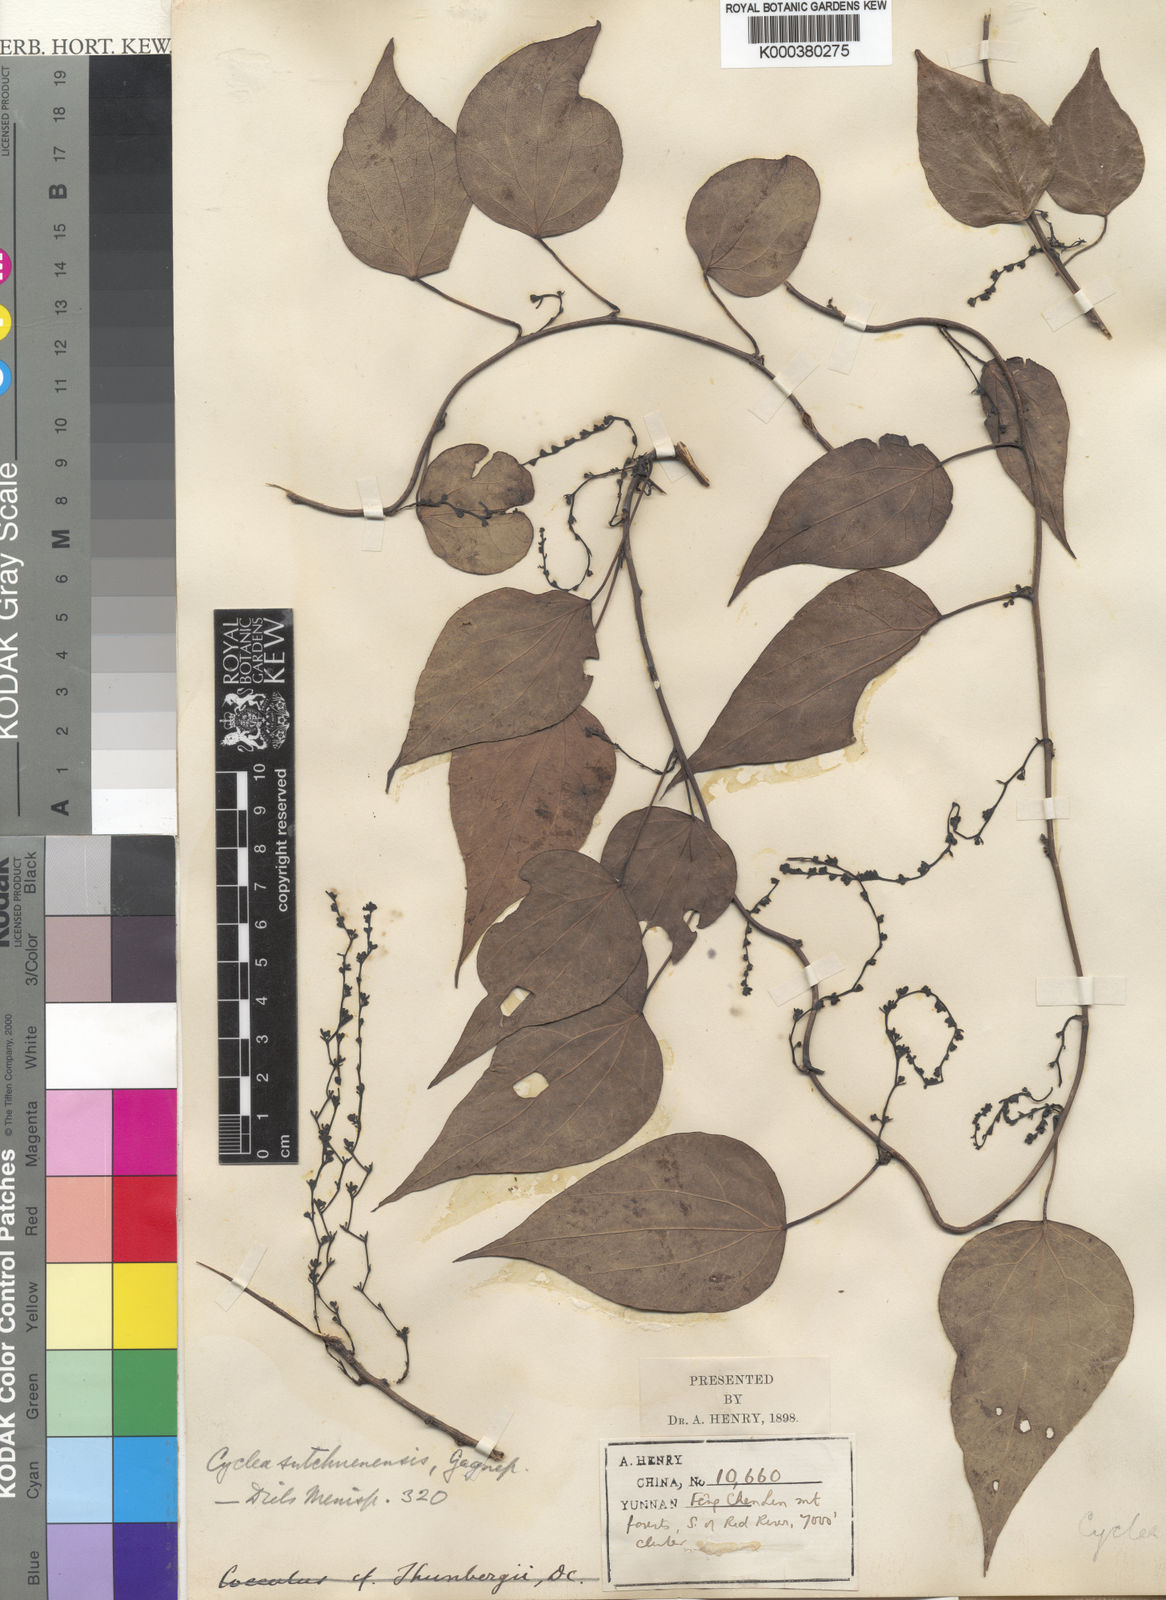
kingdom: Plantae
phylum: Tracheophyta
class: Magnoliopsida
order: Ranunculales
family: Menispermaceae
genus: Cyclea
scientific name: Cyclea sutchuenensis
